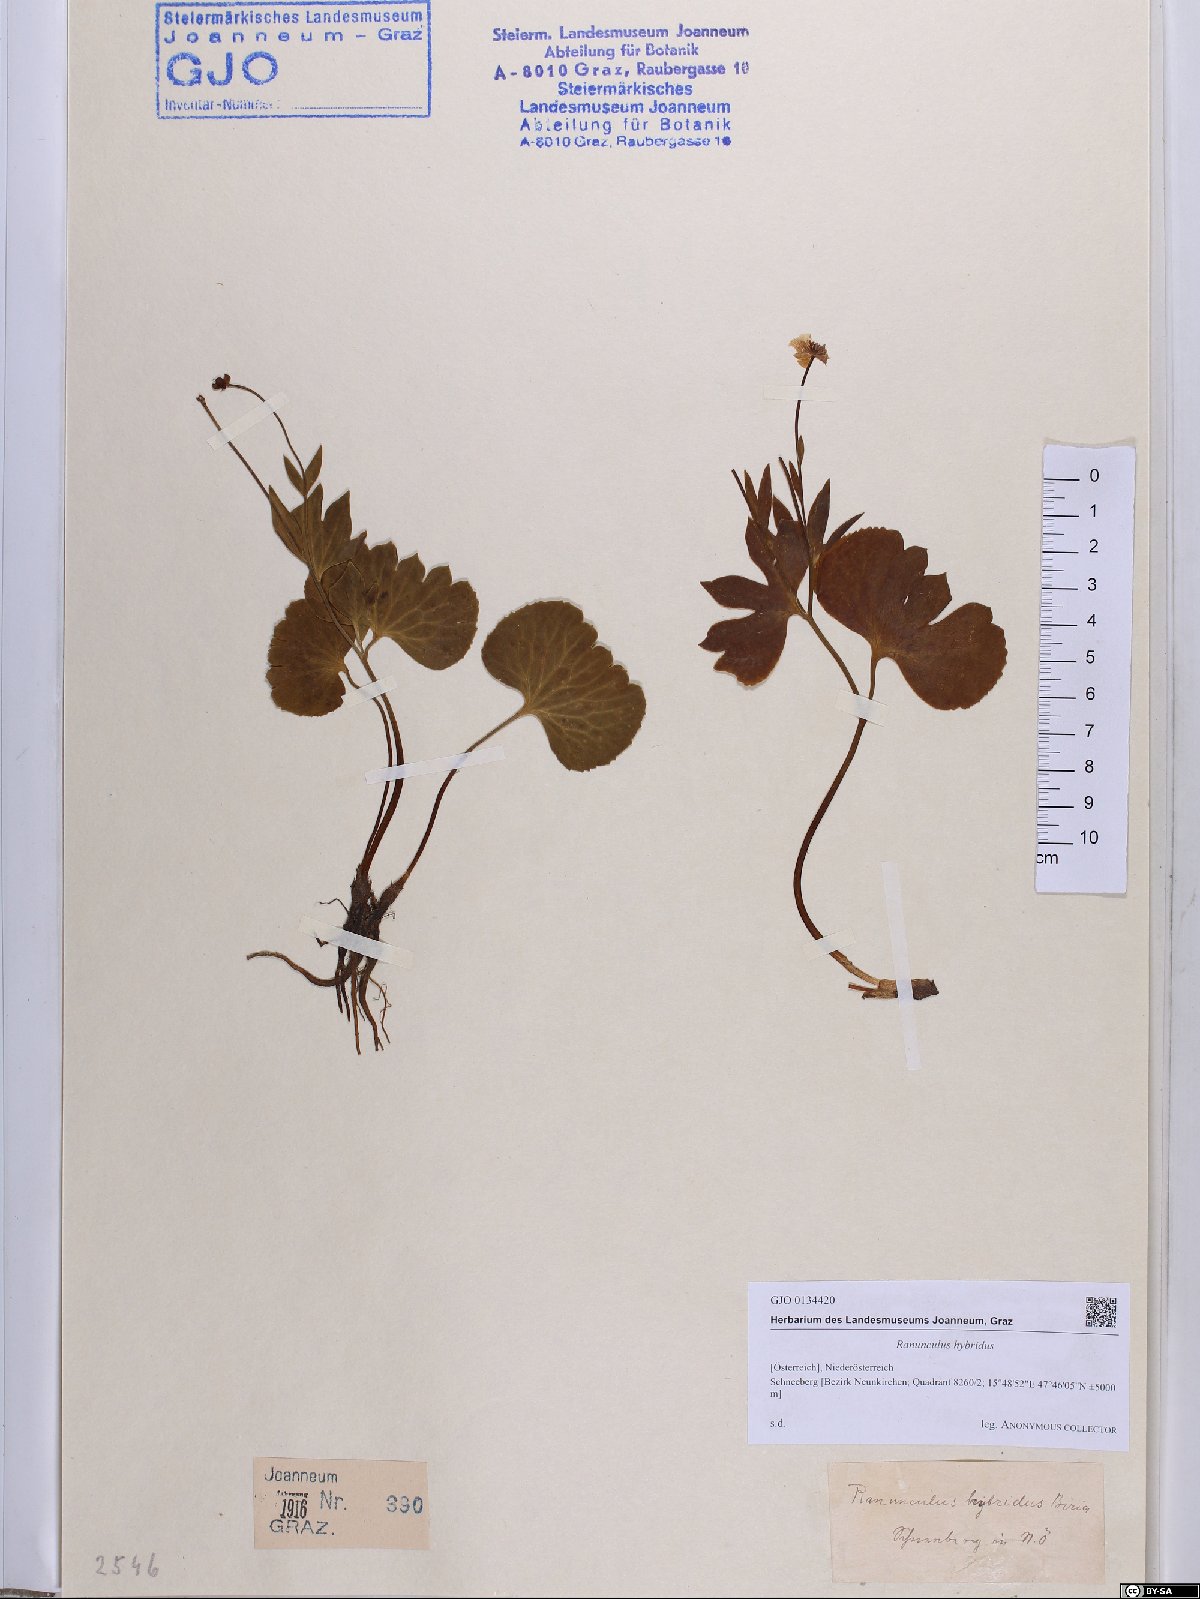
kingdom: Plantae
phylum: Tracheophyta
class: Magnoliopsida
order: Ranunculales
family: Ranunculaceae
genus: Ranunculus
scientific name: Ranunculus hybridus
